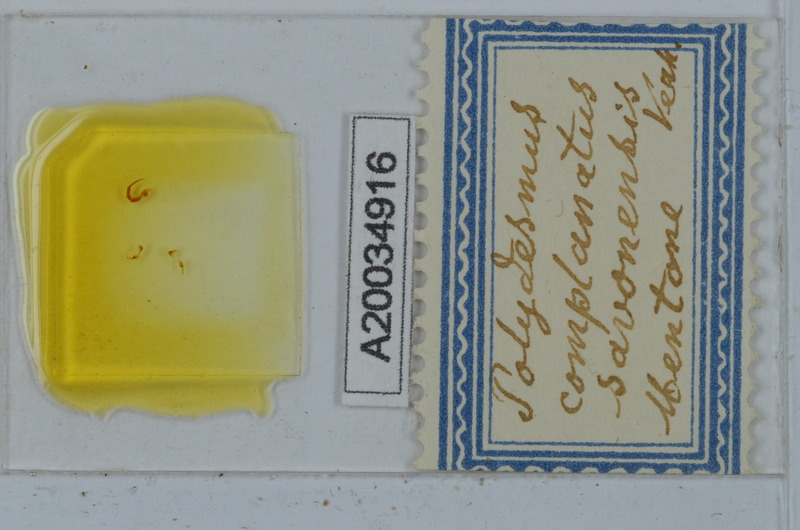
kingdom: Animalia
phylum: Arthropoda
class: Diplopoda
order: Polydesmida
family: Polydesmidae
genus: Polydesmus
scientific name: Polydesmus complanatus
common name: Flat-backed millipede
